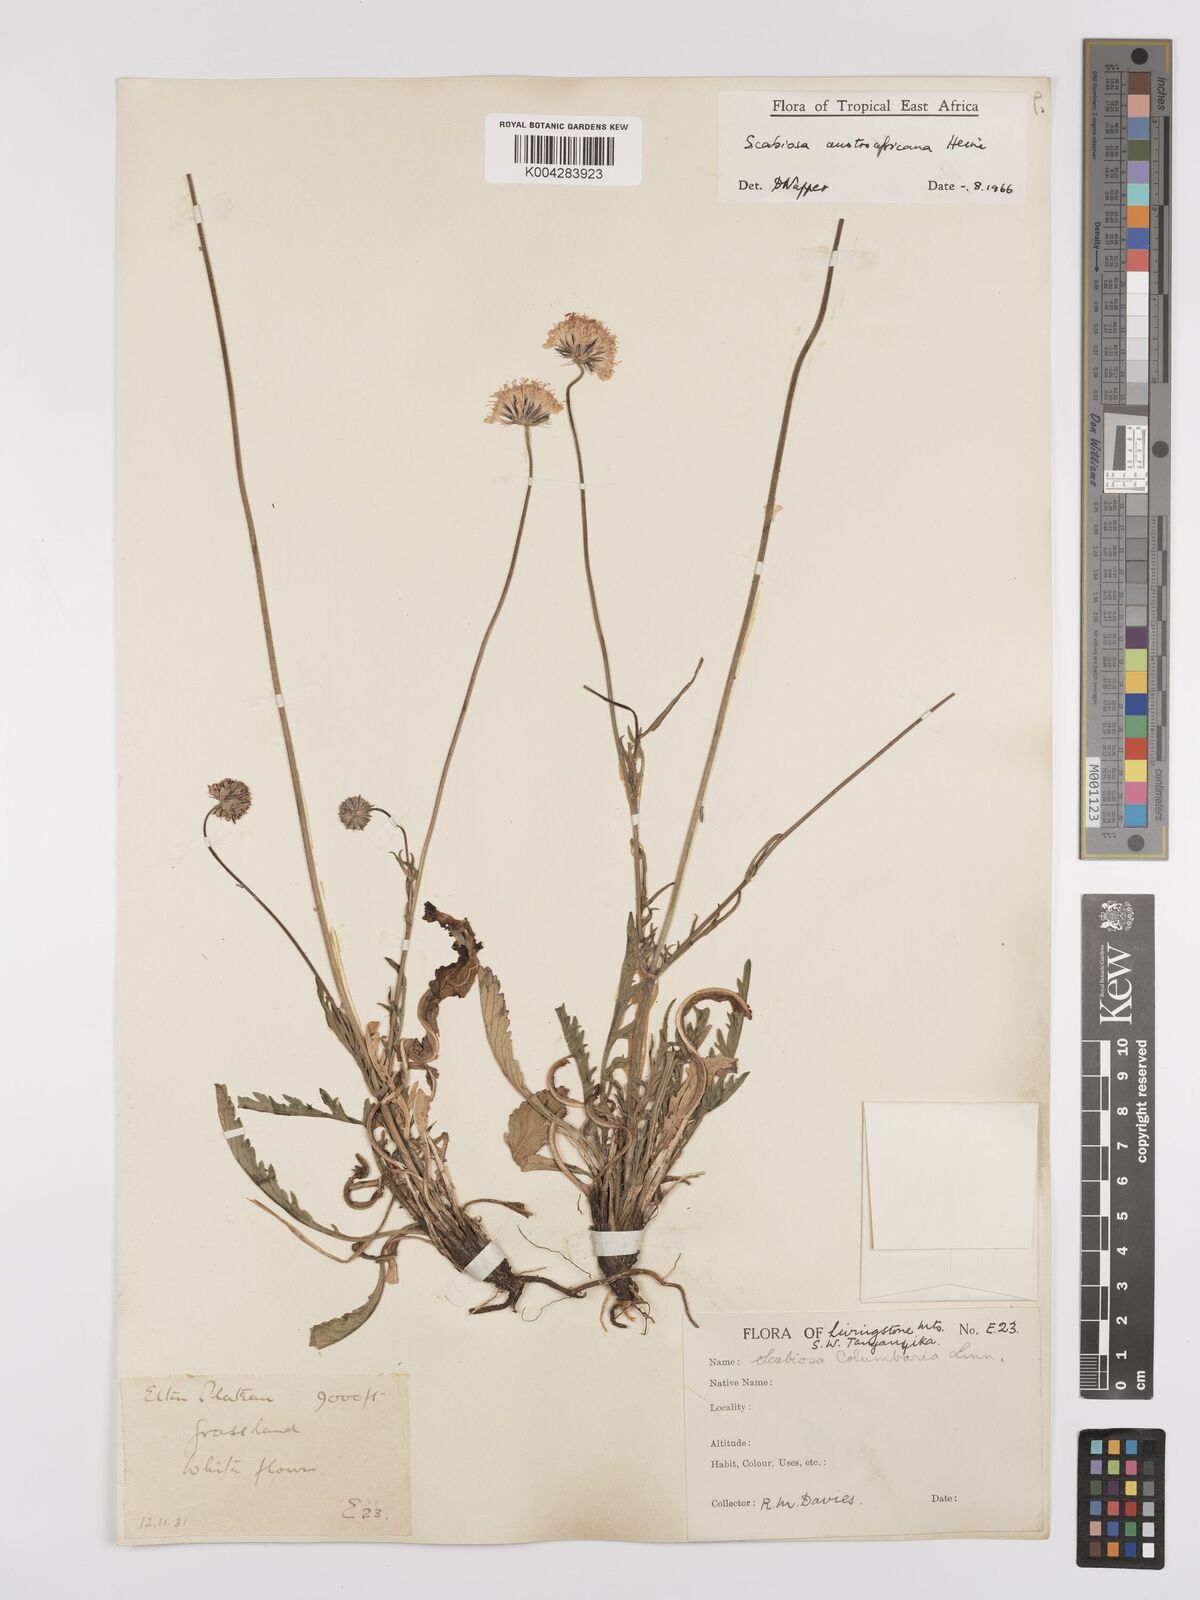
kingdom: Plantae
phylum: Tracheophyta
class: Magnoliopsida
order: Dipsacales
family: Caprifoliaceae
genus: Scabiosa
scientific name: Scabiosa austroafricana
